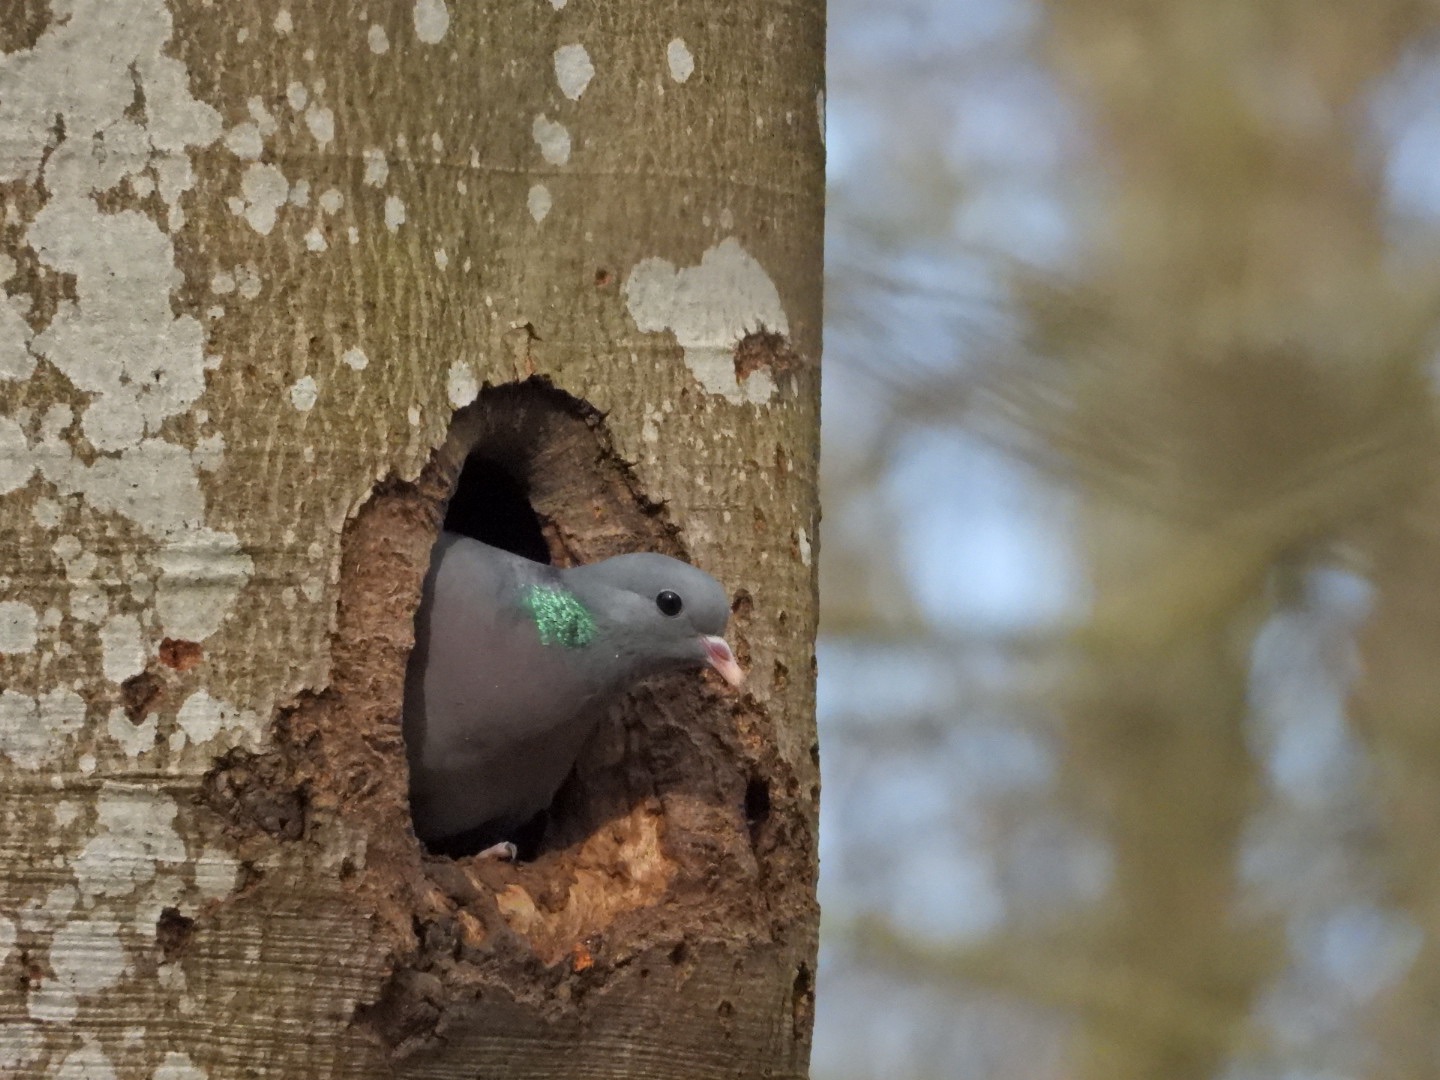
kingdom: Animalia
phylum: Chordata
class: Aves
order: Columbiformes
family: Columbidae
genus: Columba
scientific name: Columba oenas
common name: Huldue
